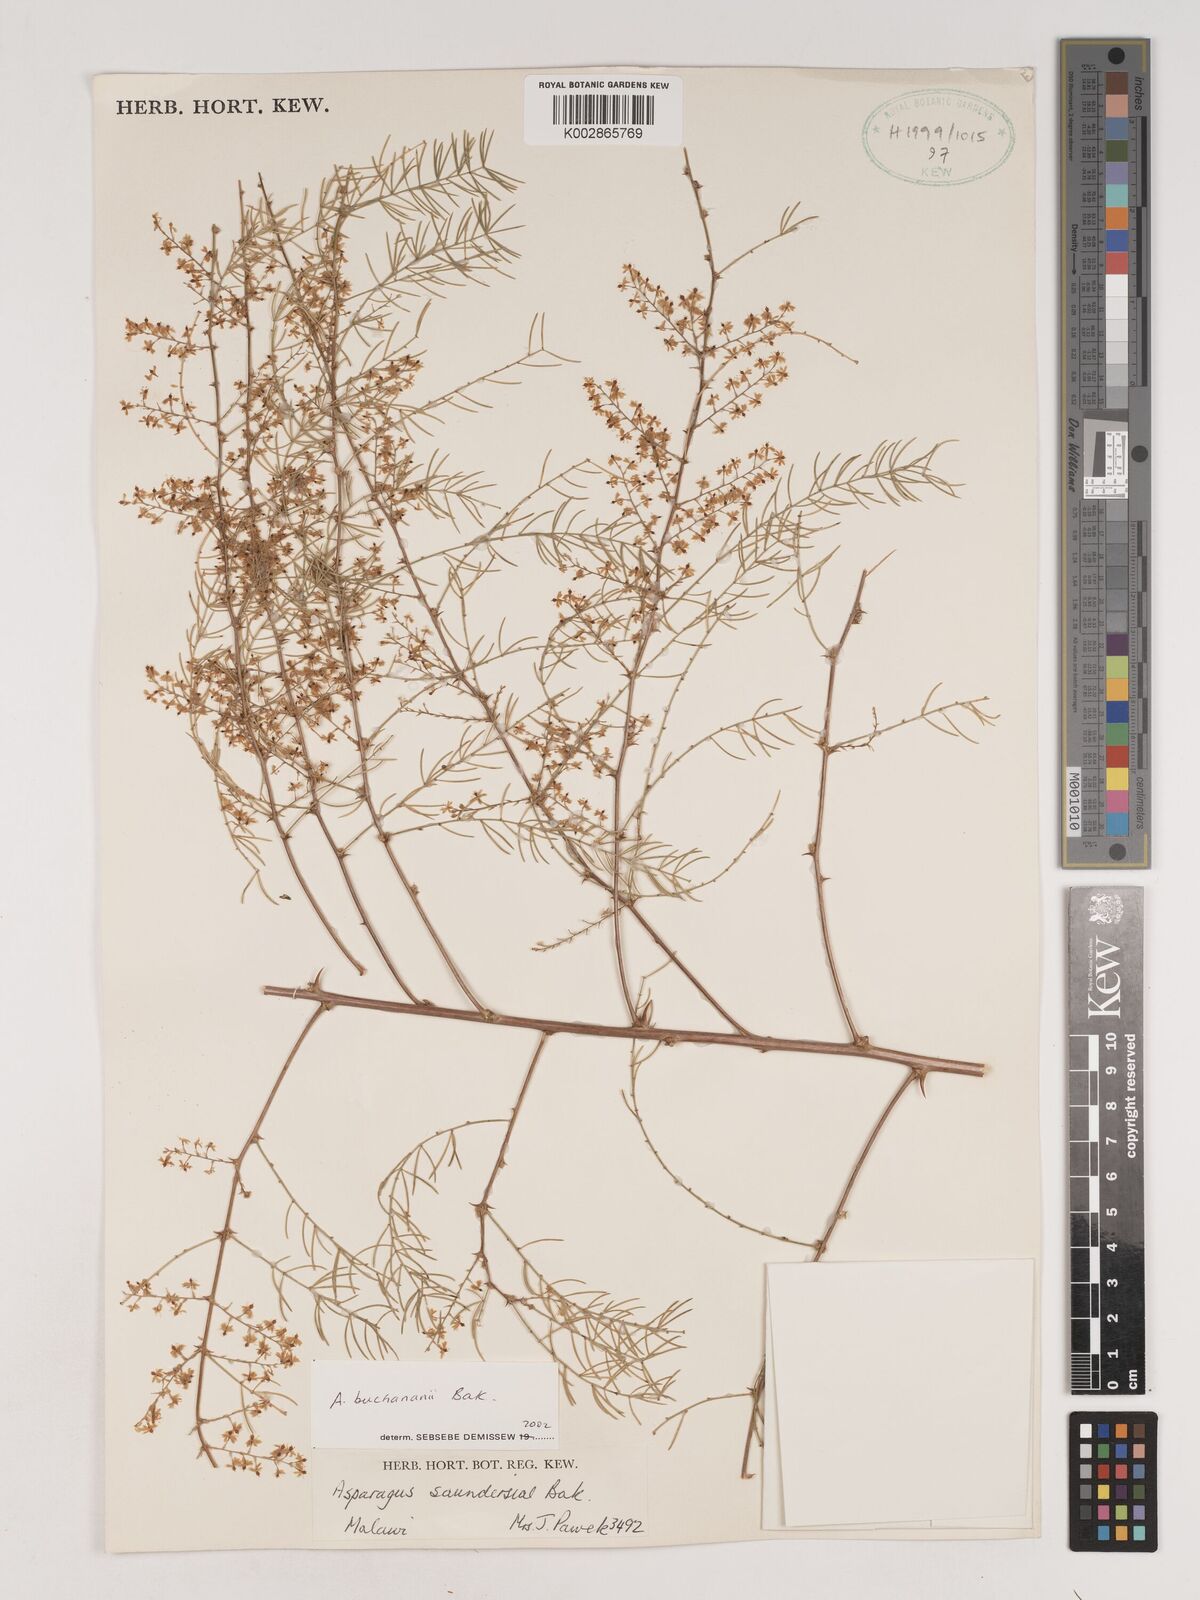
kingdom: Plantae
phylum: Tracheophyta
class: Liliopsida
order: Asparagales
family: Asparagaceae
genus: Asparagus
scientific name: Asparagus buchananii
